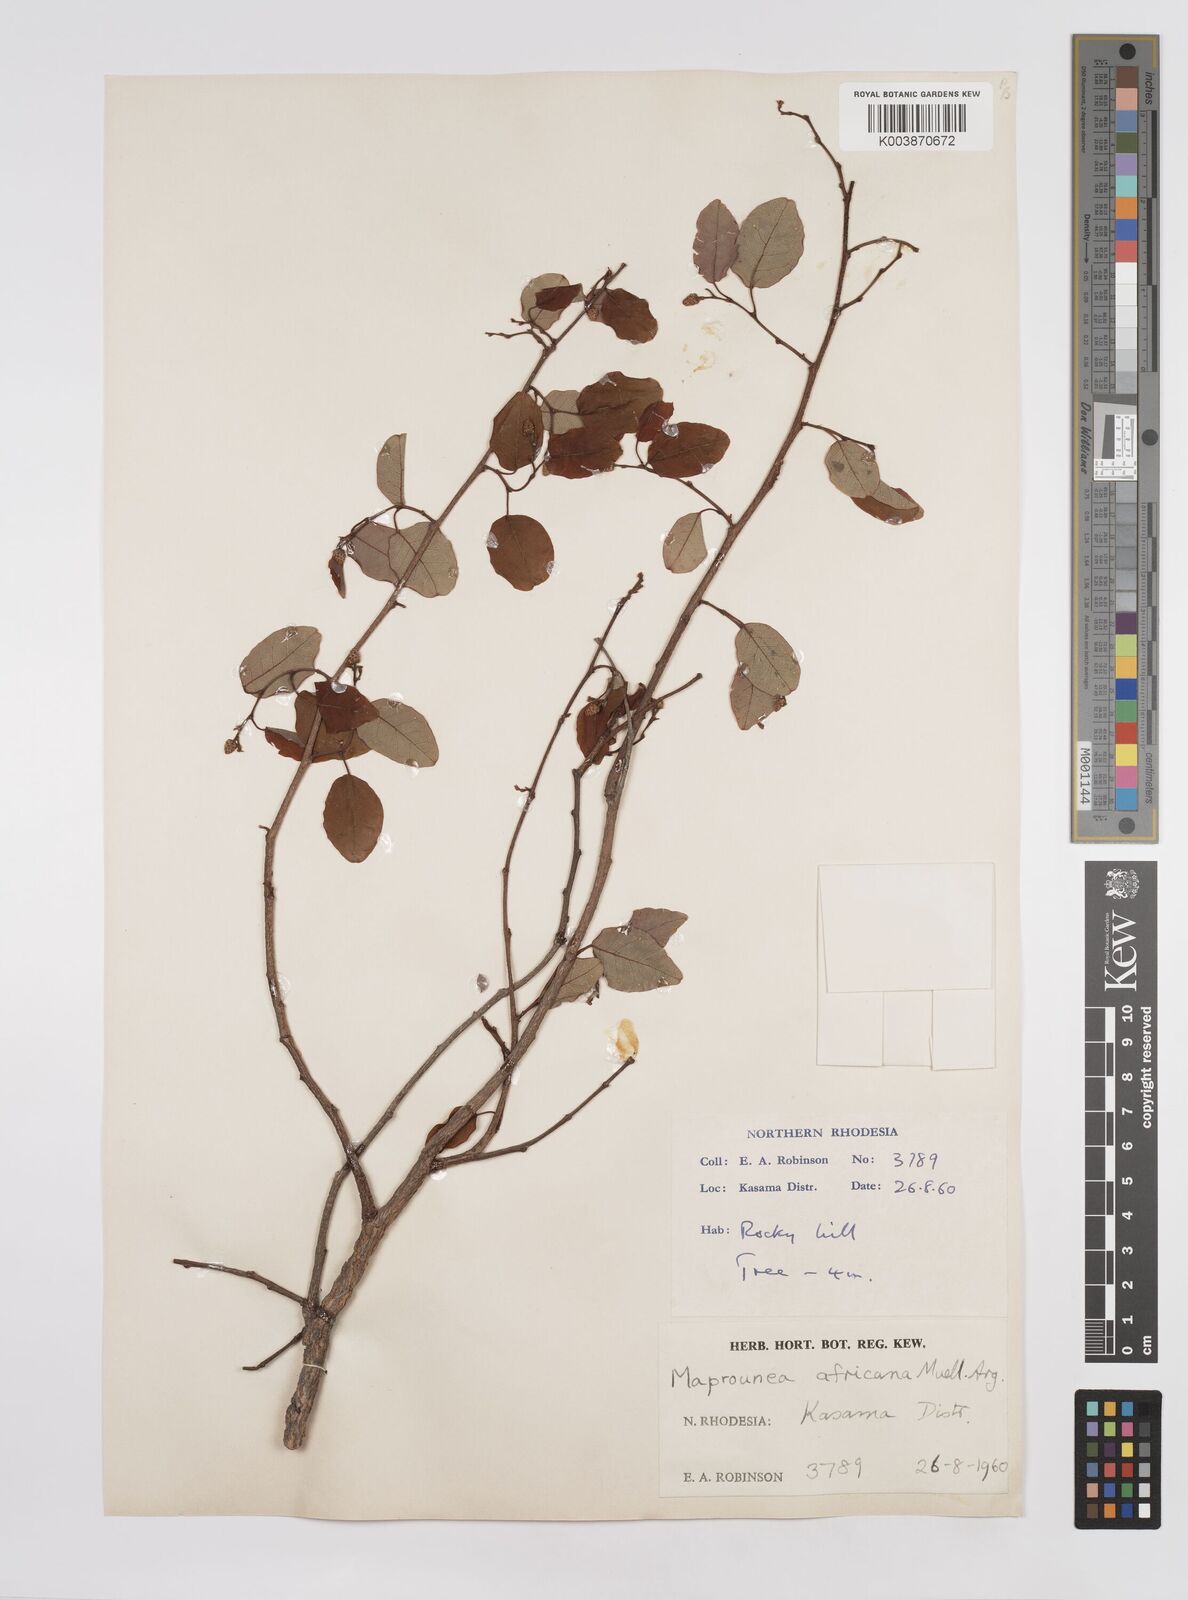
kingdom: Plantae
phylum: Tracheophyta
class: Magnoliopsida
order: Malpighiales
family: Euphorbiaceae
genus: Maprounea
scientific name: Maprounea africana
